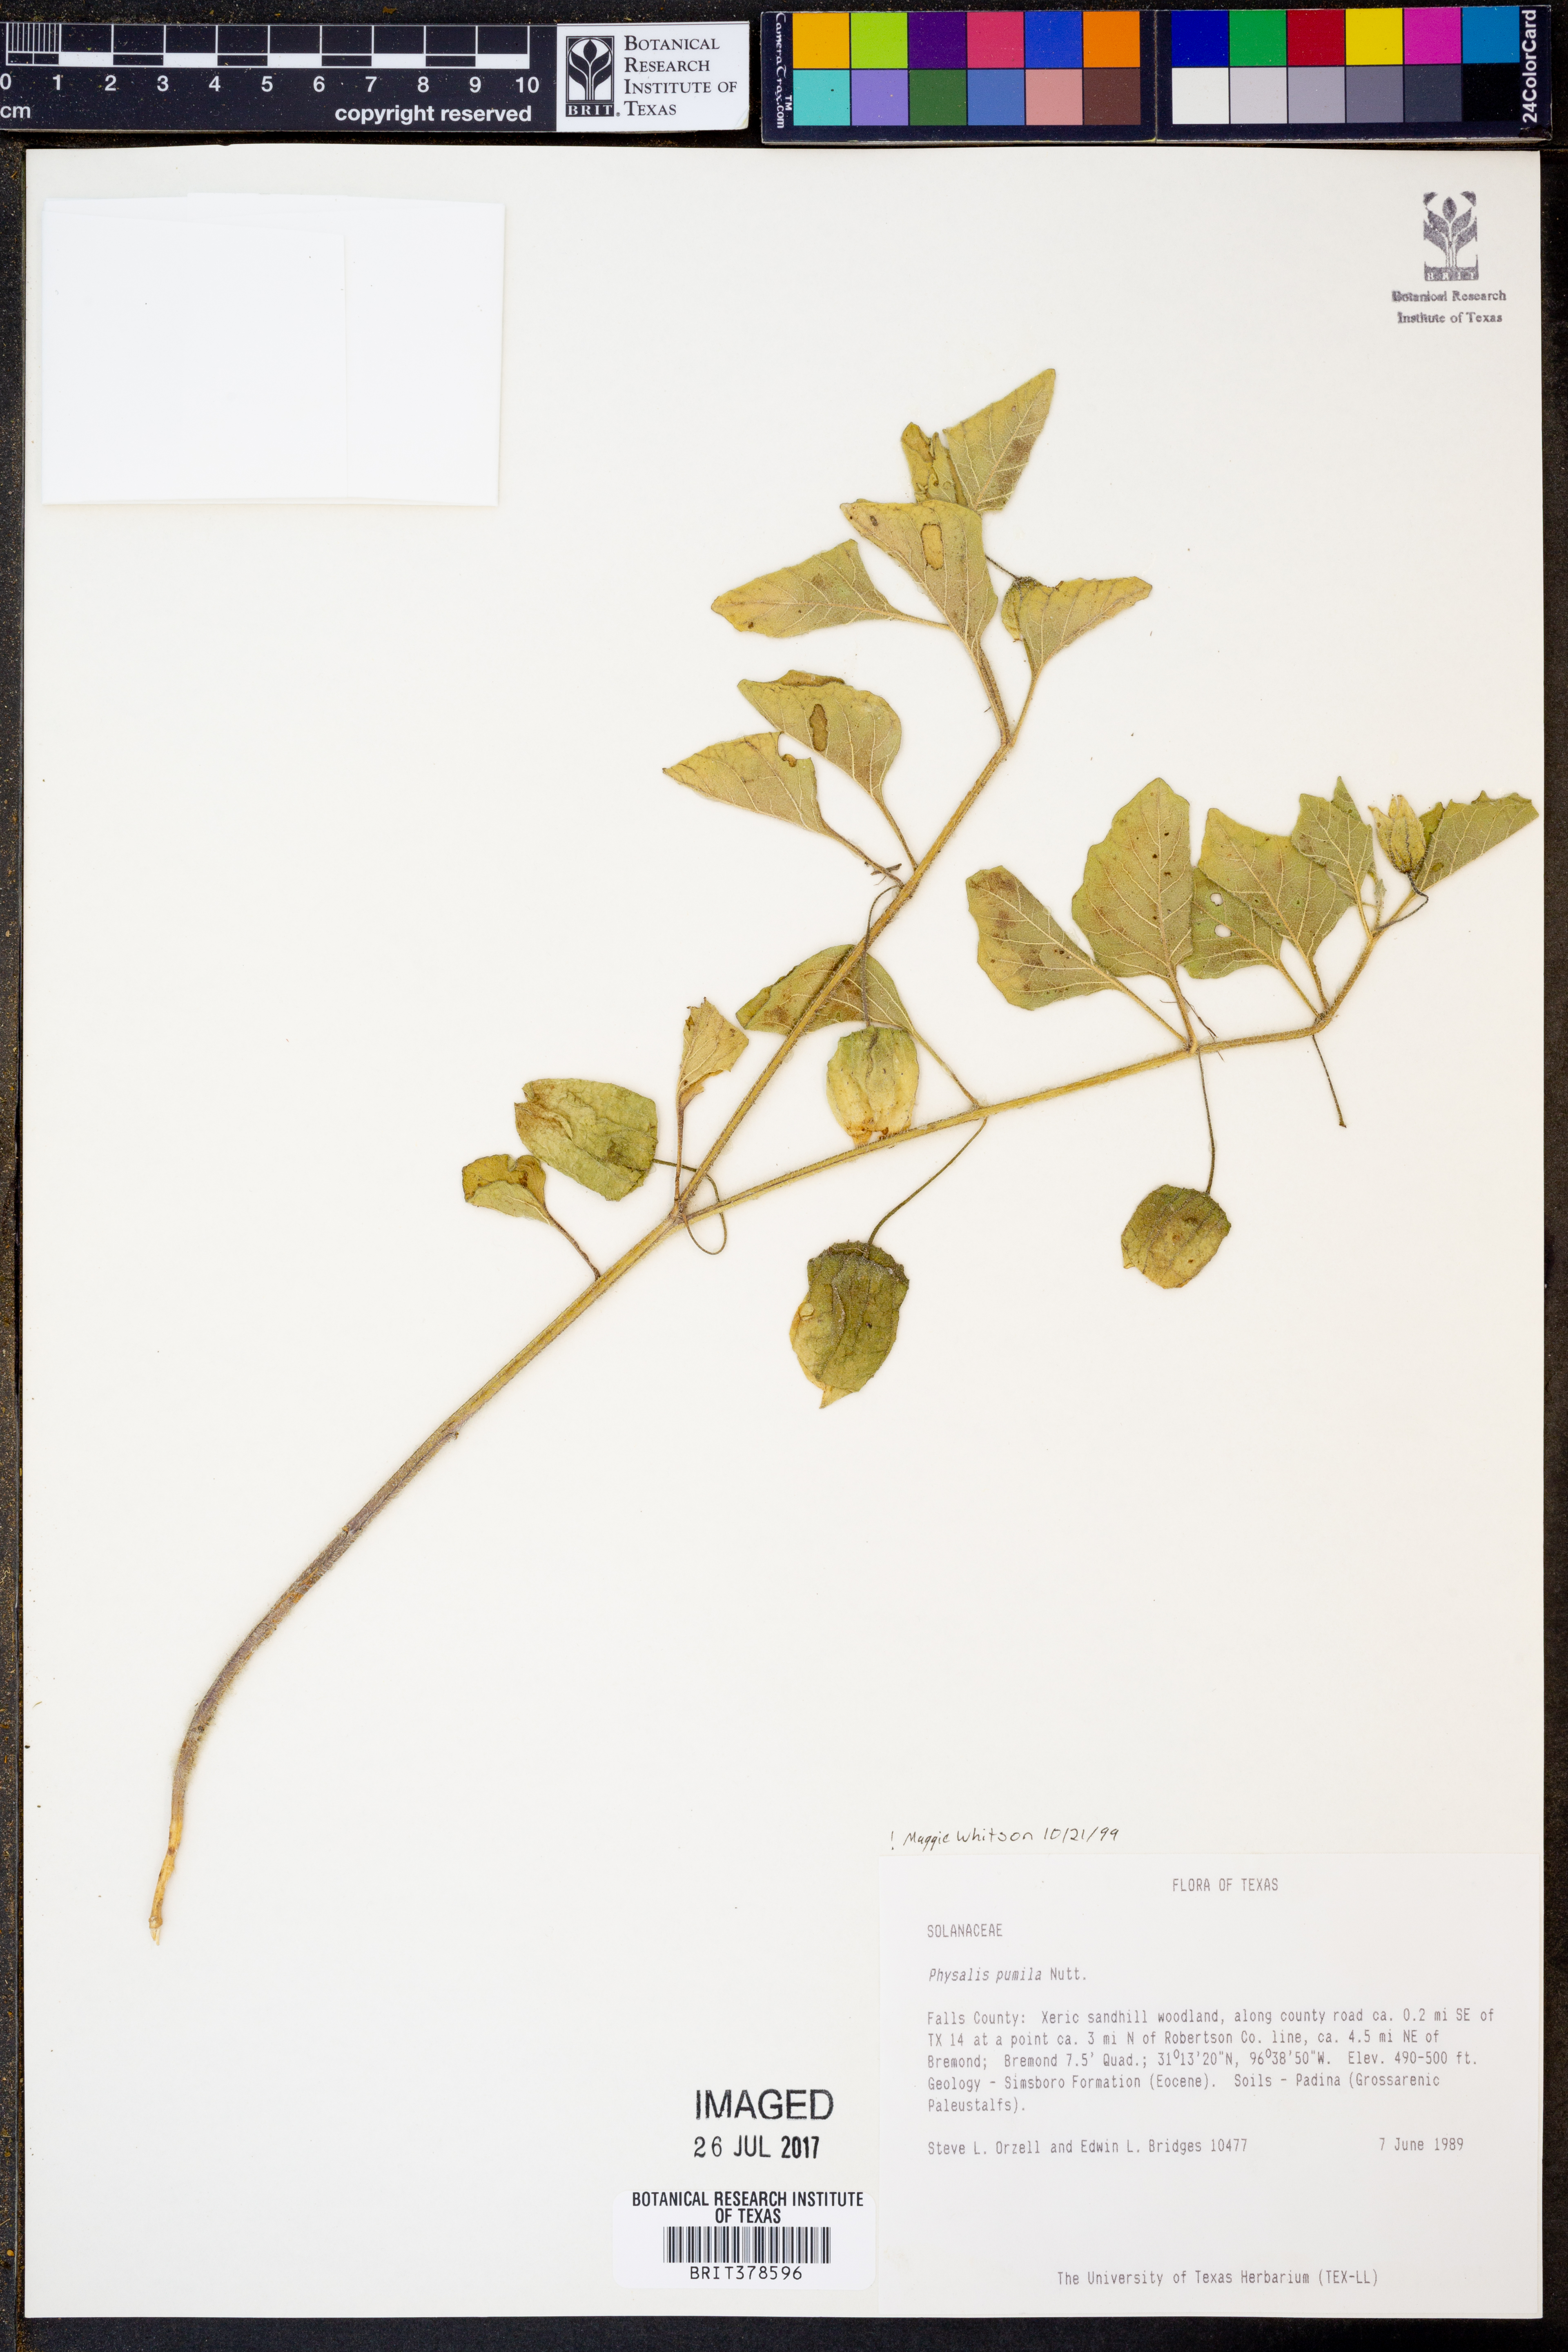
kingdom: Plantae
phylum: Tracheophyta
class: Magnoliopsida
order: Solanales
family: Solanaceae
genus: Physalis
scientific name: Physalis pumila
